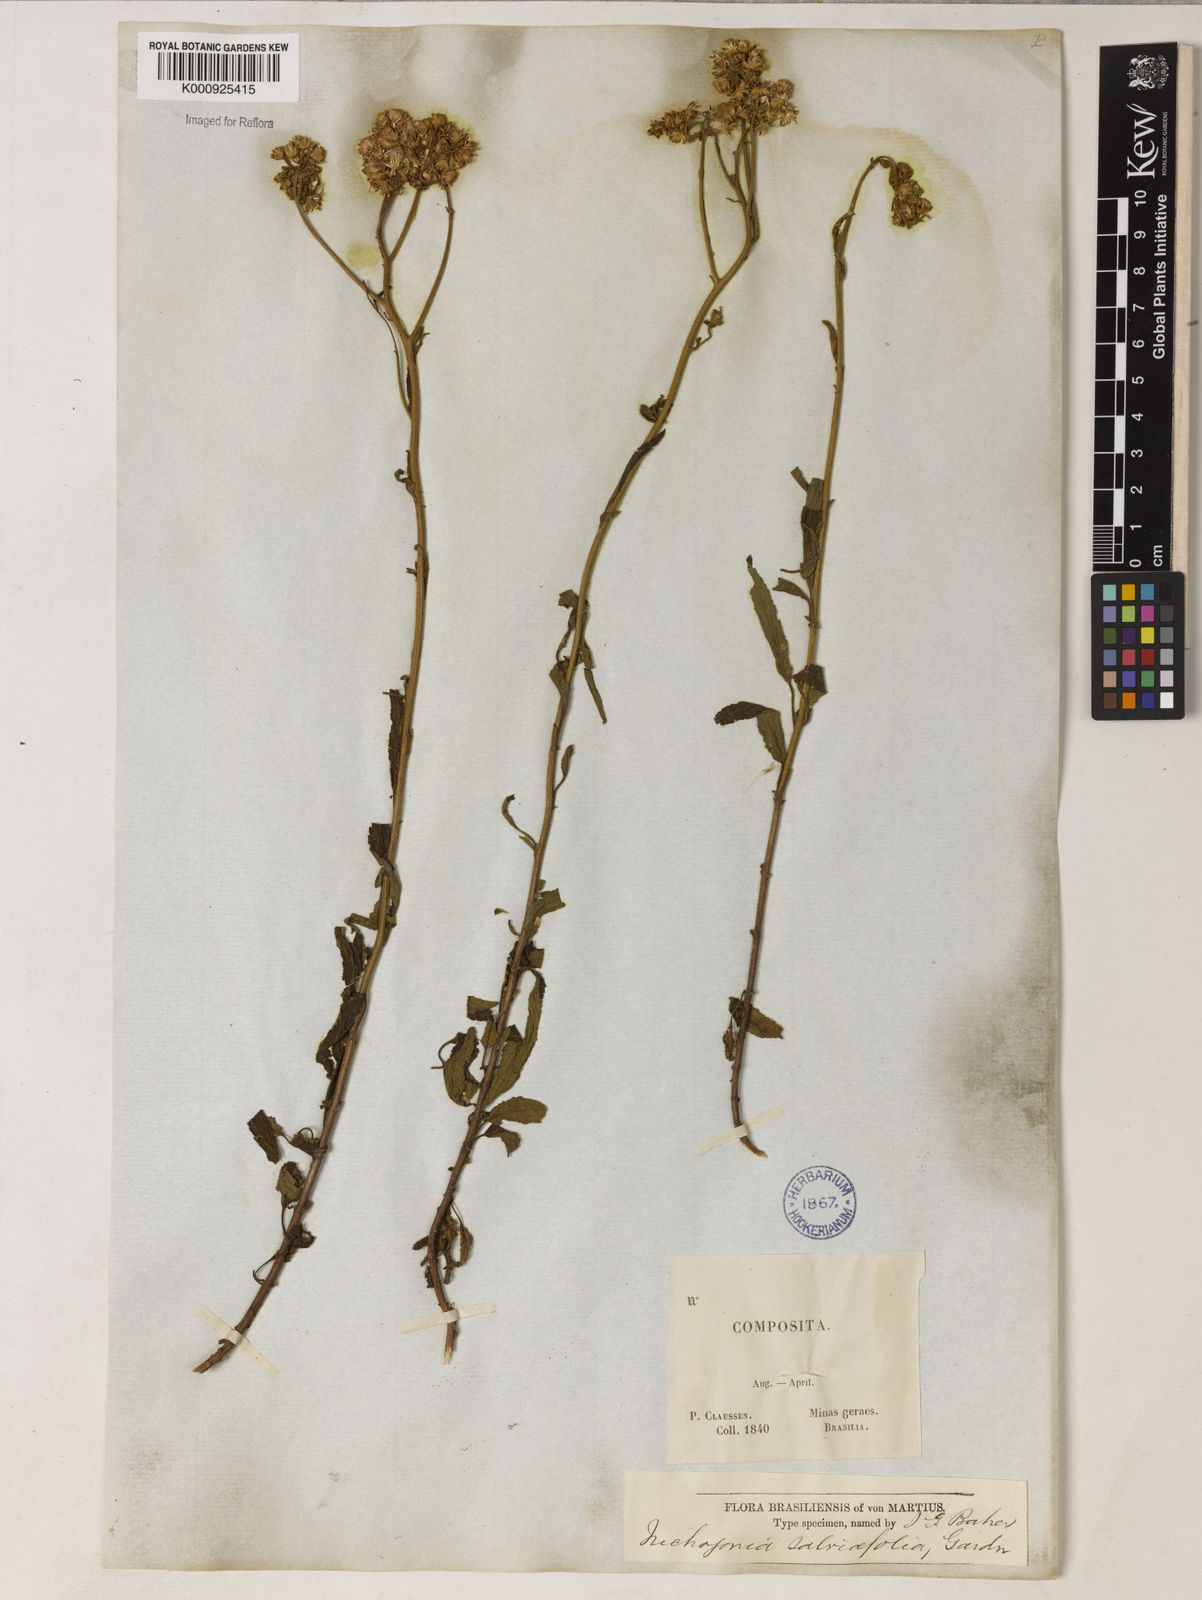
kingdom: Plantae
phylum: Tracheophyta
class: Magnoliopsida
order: Asterales
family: Asteraceae
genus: Trichogonia
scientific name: Trichogonia
